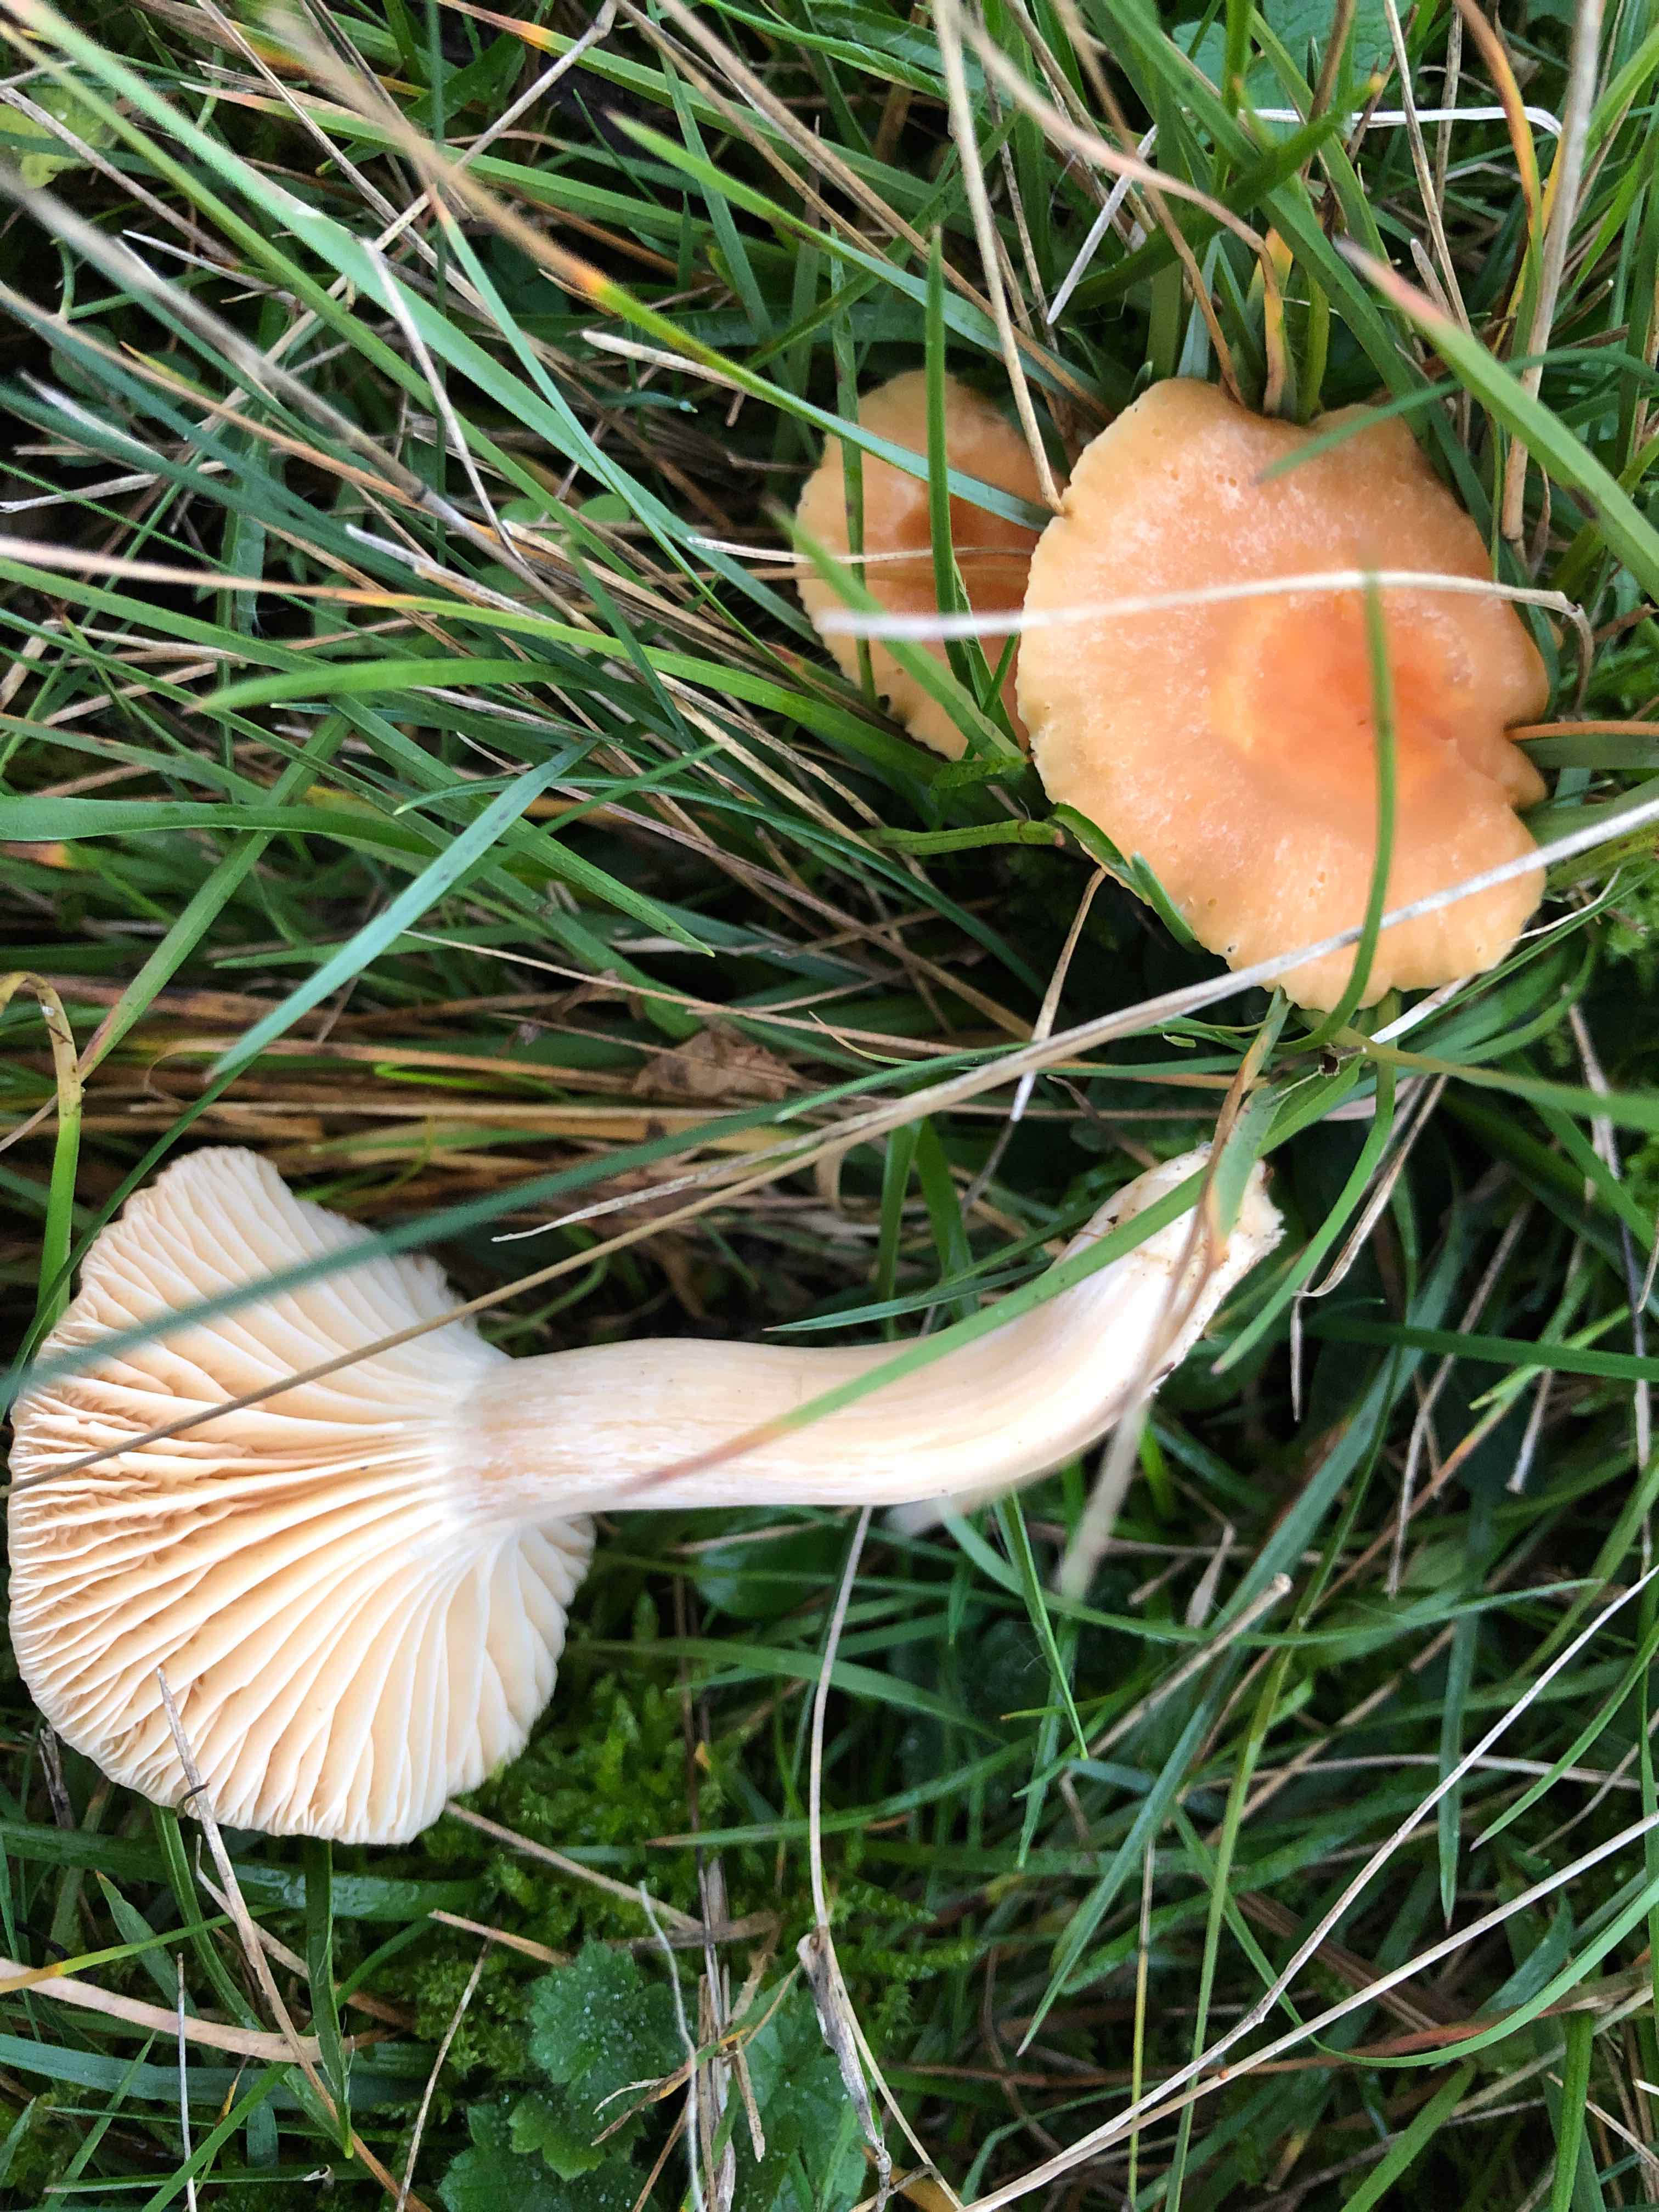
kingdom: Fungi
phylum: Basidiomycota
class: Agaricomycetes
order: Agaricales
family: Hygrophoraceae
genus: Cuphophyllus
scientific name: Cuphophyllus pratensis
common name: eng-vokshat
